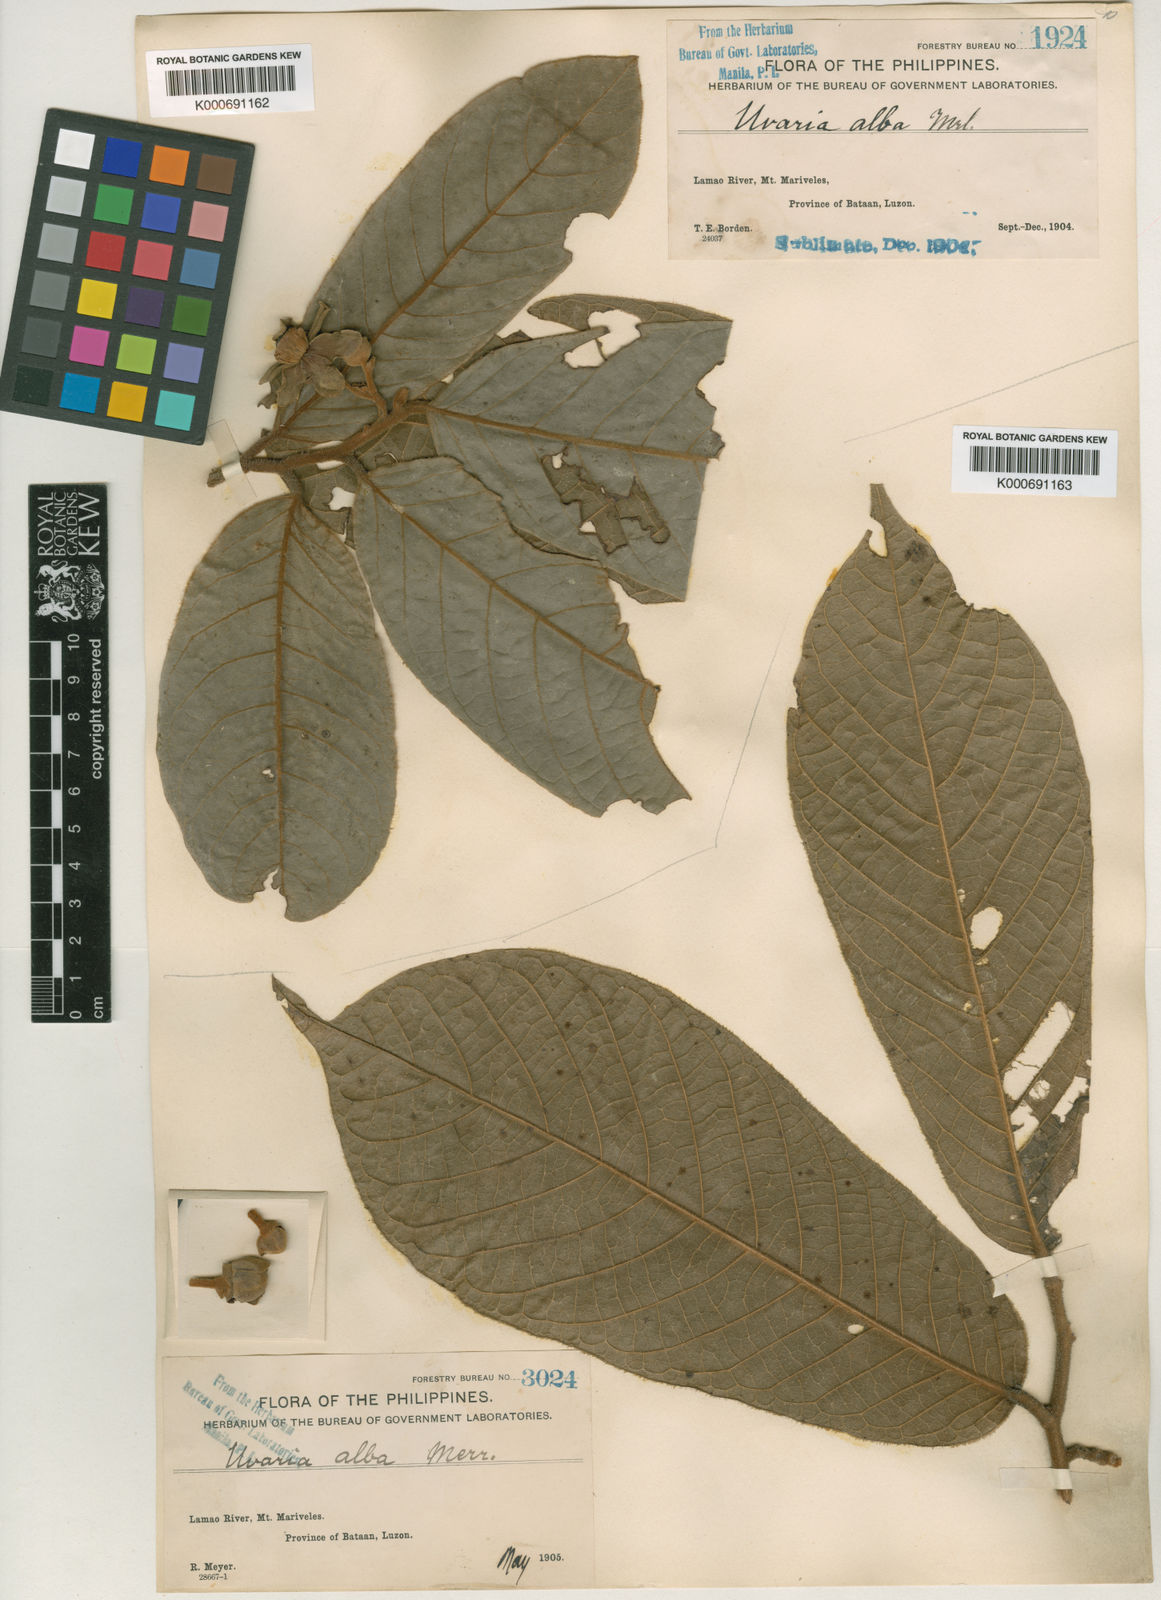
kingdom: Plantae
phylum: Tracheophyta
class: Magnoliopsida
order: Magnoliales
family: Annonaceae
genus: Uvaria
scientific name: Uvaria alba
